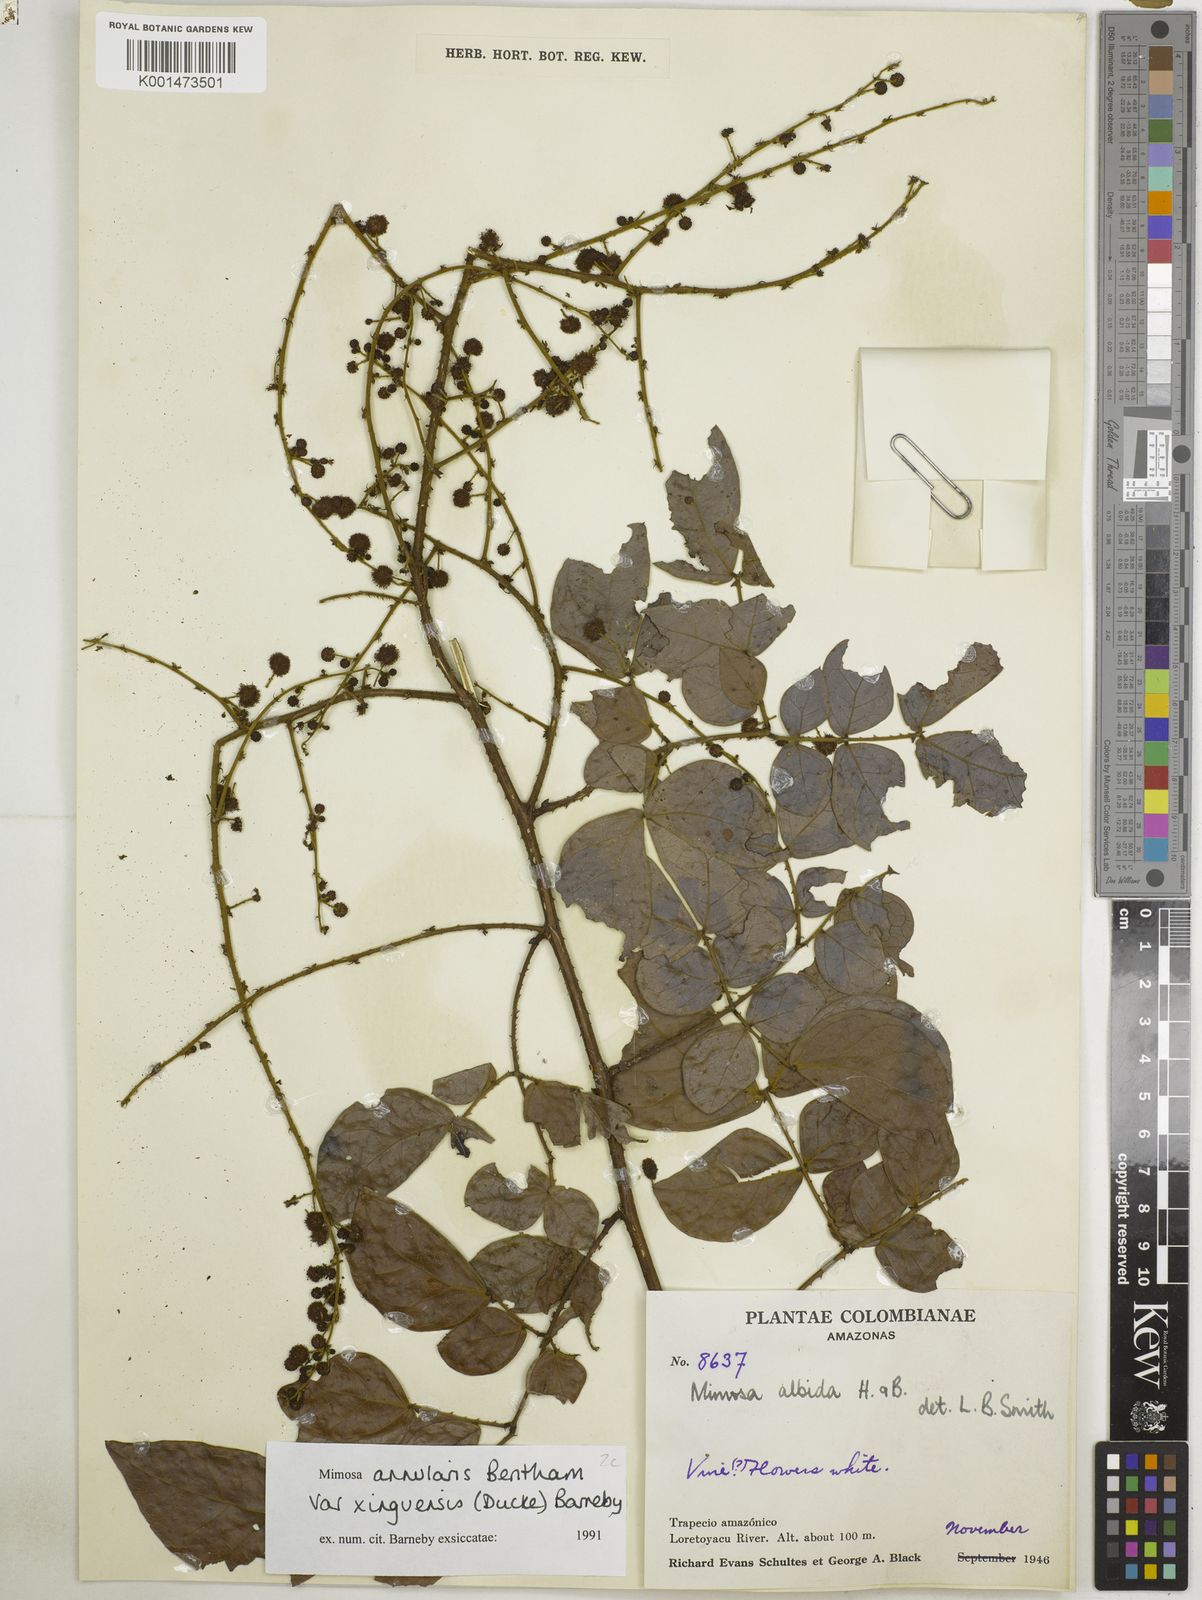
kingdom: Plantae
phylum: Tracheophyta
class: Magnoliopsida
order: Fabales
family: Fabaceae
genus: Mimosa
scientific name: Mimosa annularis
